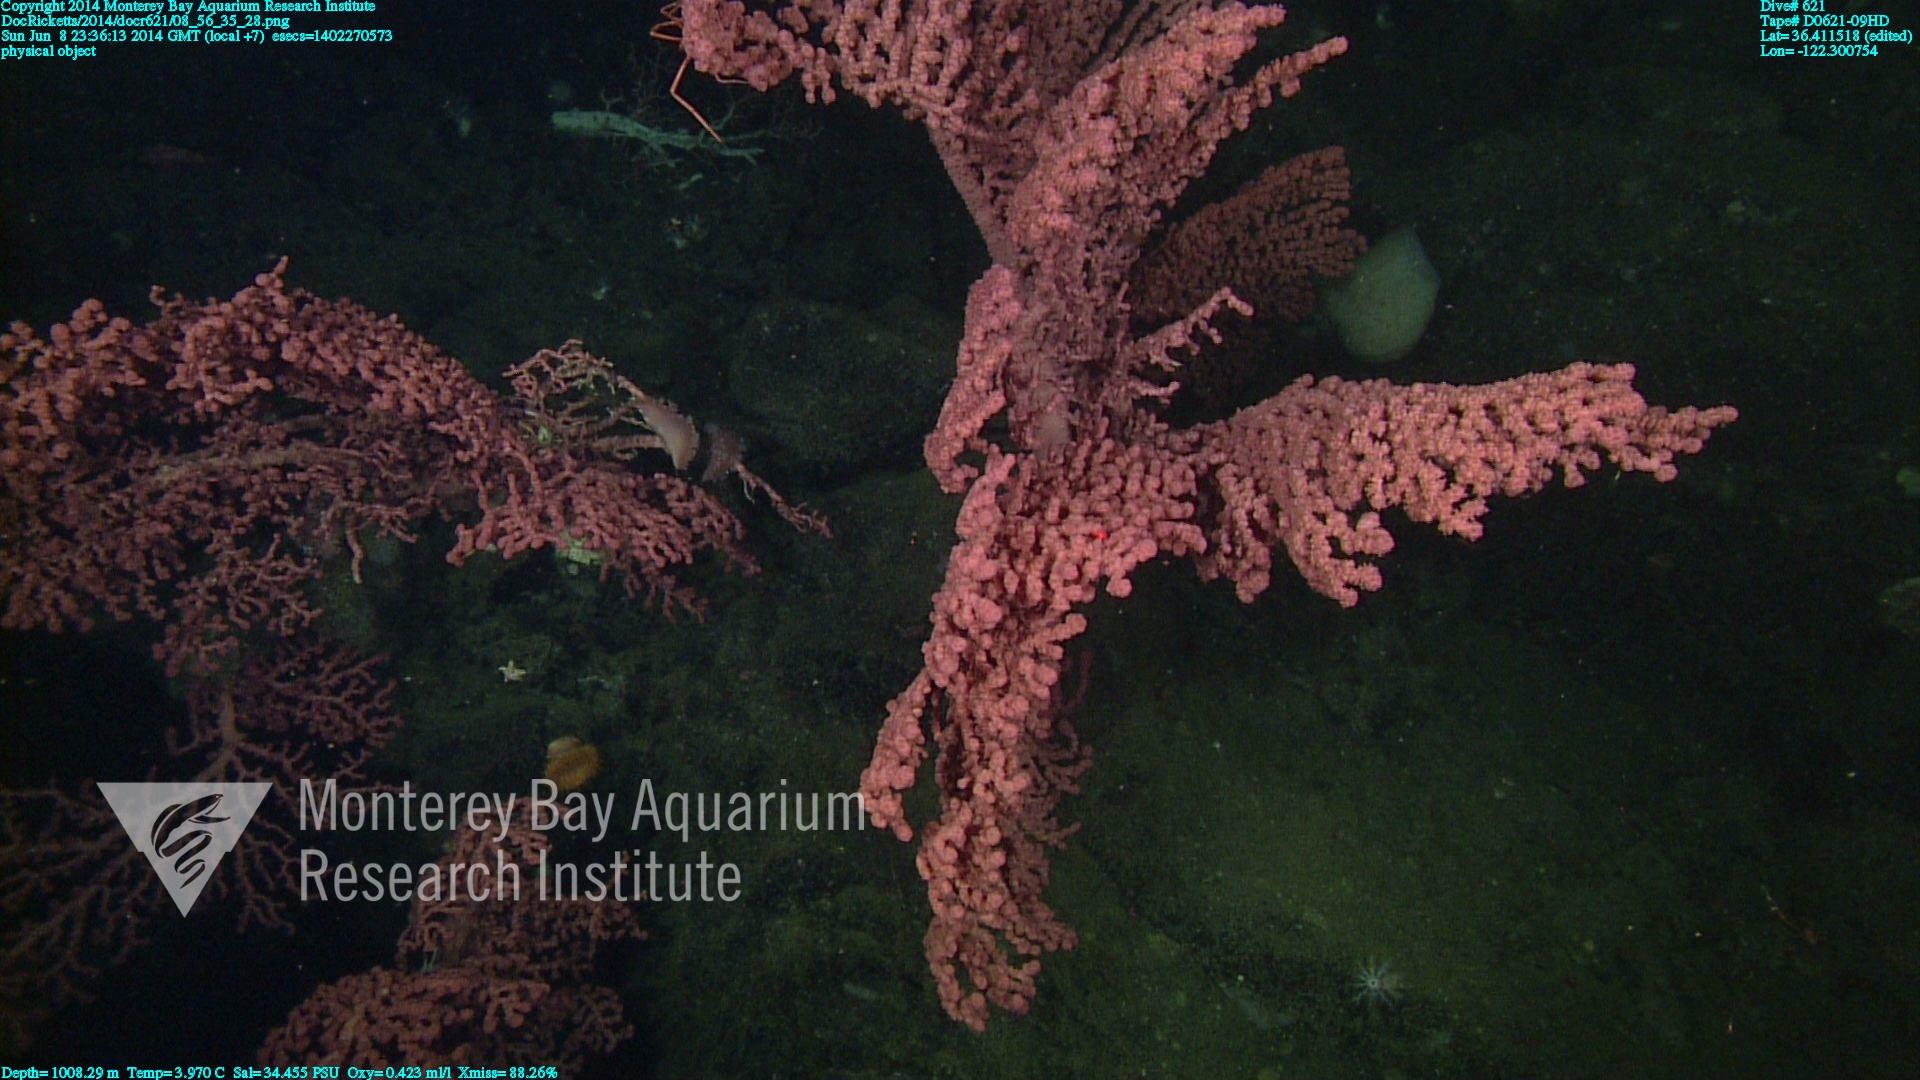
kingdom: Animalia
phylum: Cnidaria
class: Anthozoa
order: Scleralcyonacea
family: Coralliidae
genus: Paragorgia
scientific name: Paragorgia arborea
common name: Bubble gum coral
